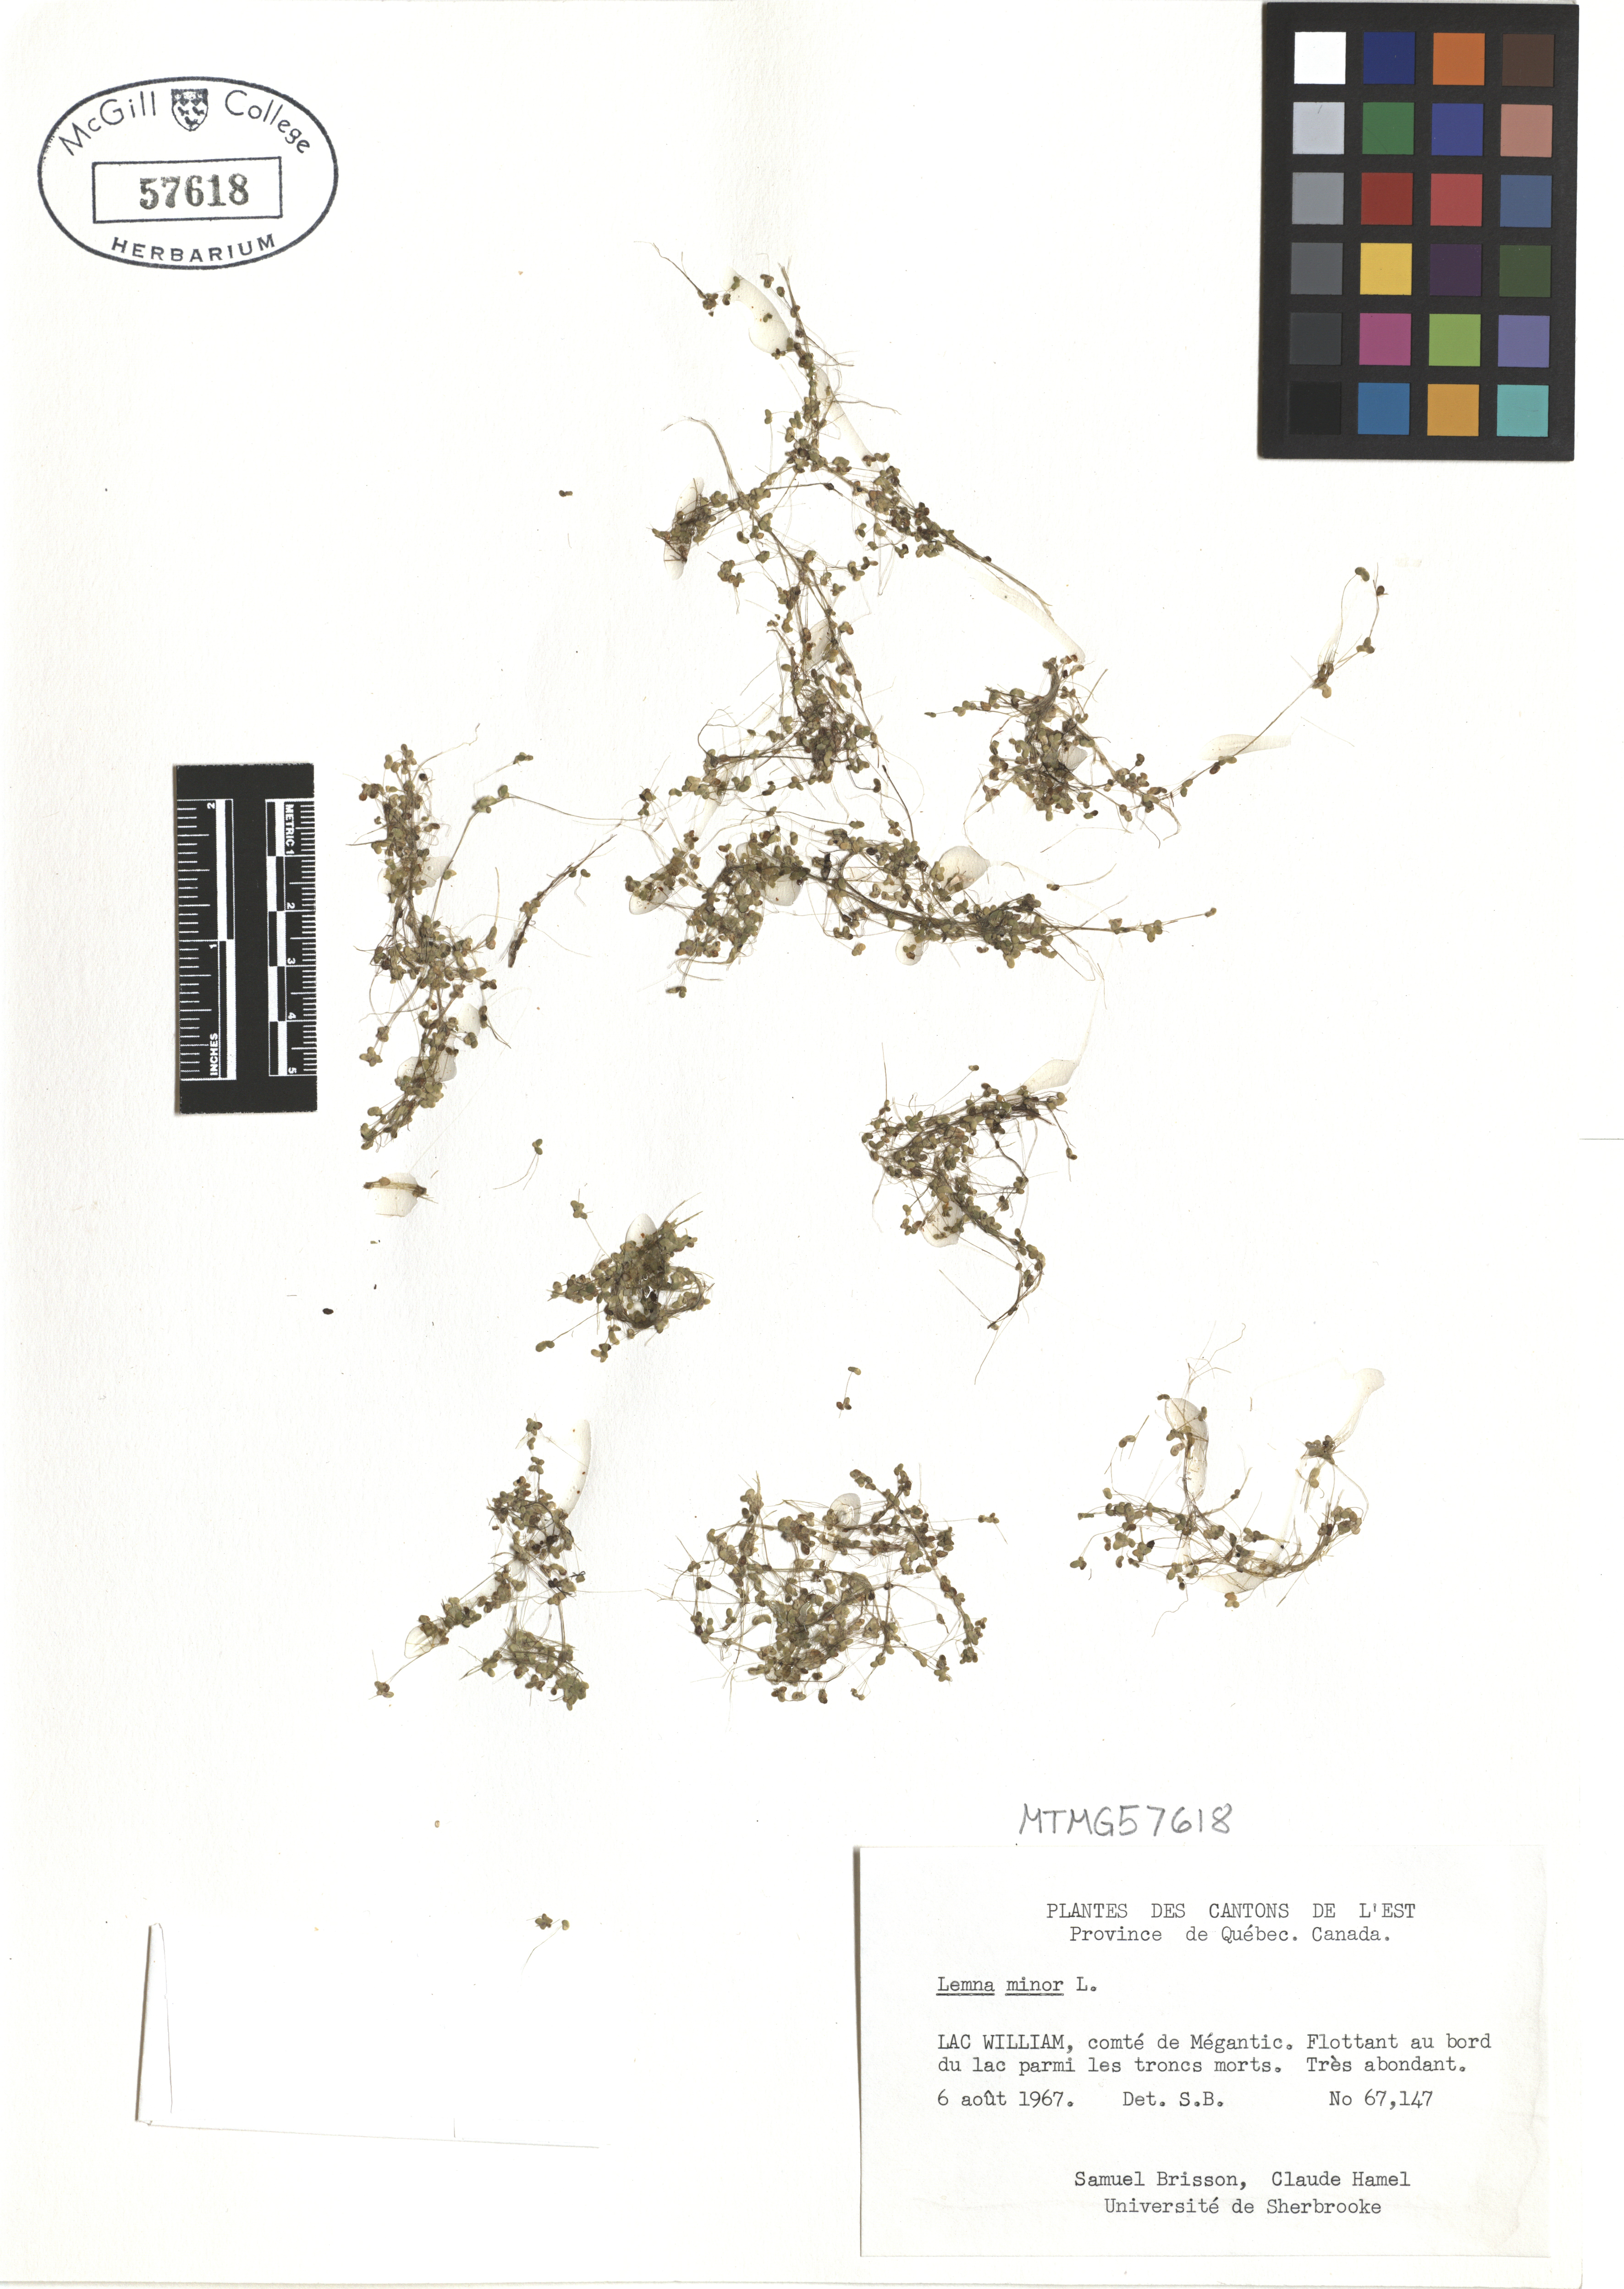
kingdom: Plantae
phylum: Tracheophyta
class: Liliopsida
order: Alismatales
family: Araceae
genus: Lemna
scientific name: Lemna minor
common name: Common duckweed
